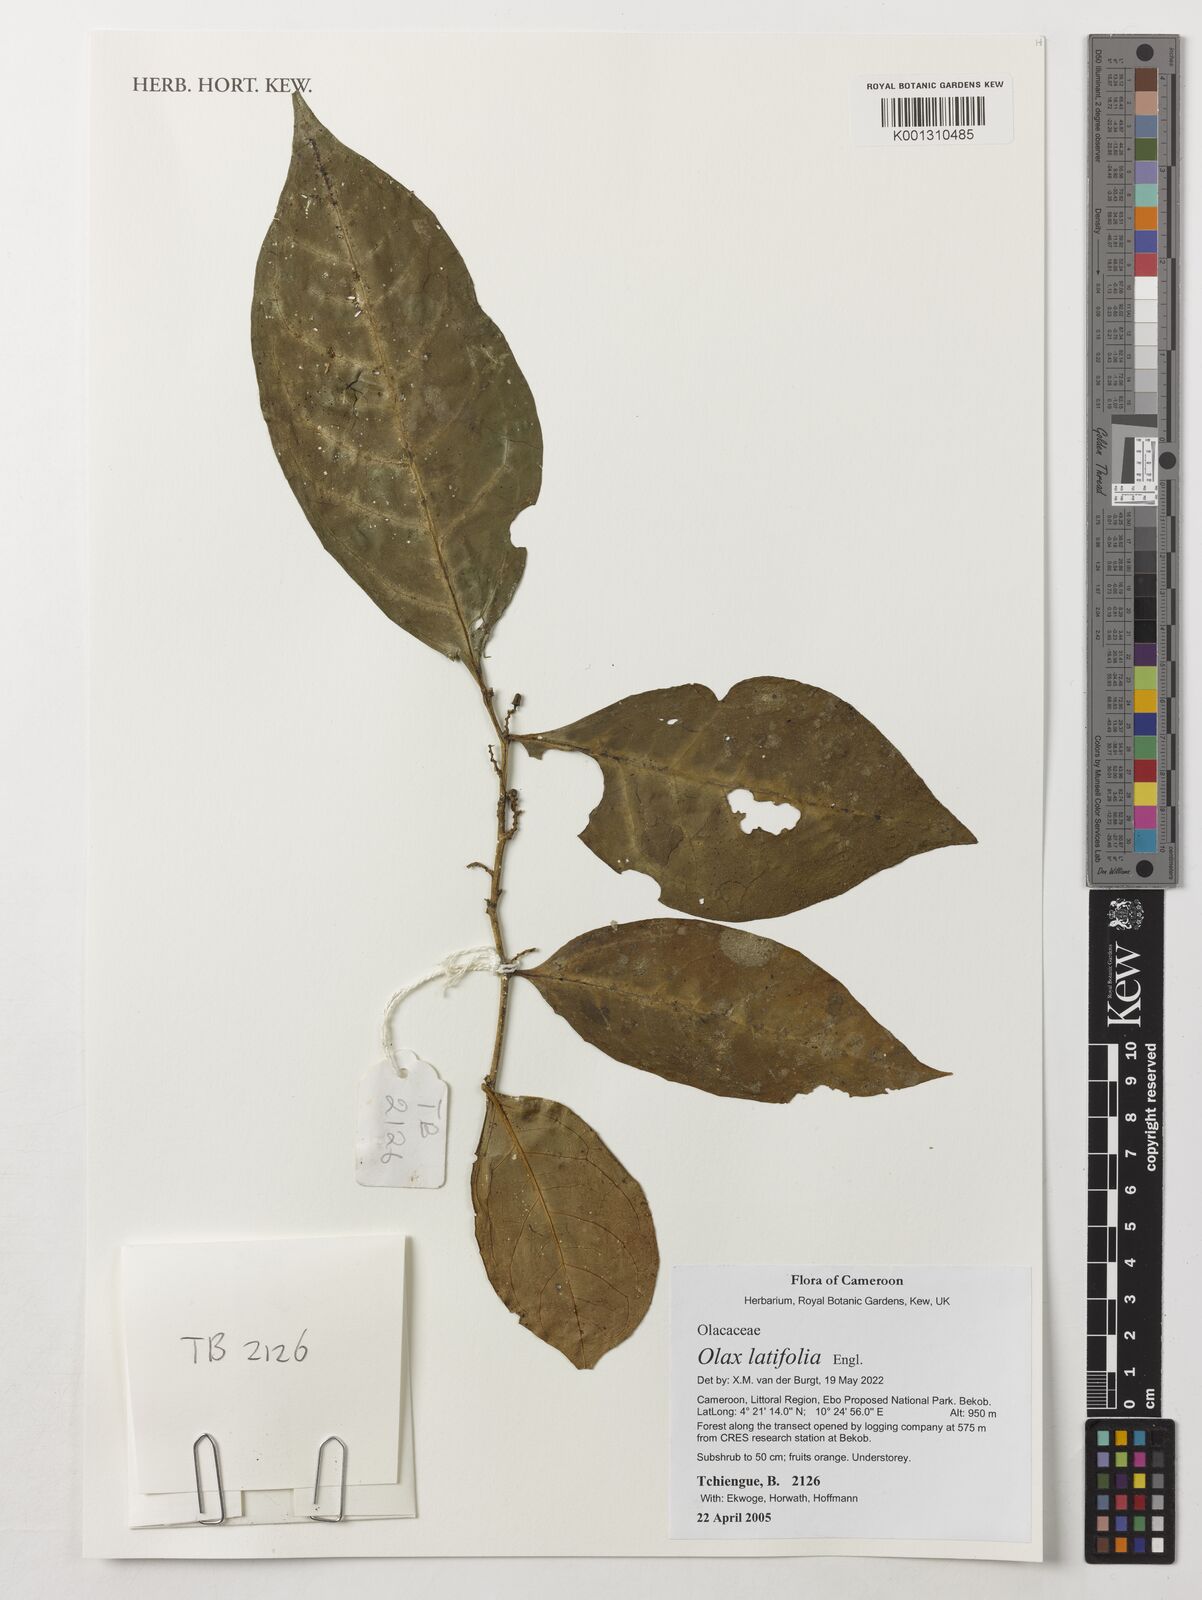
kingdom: Plantae
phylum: Tracheophyta
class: Magnoliopsida
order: Santalales
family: Olacaceae
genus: Olax
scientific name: Olax latifolia
